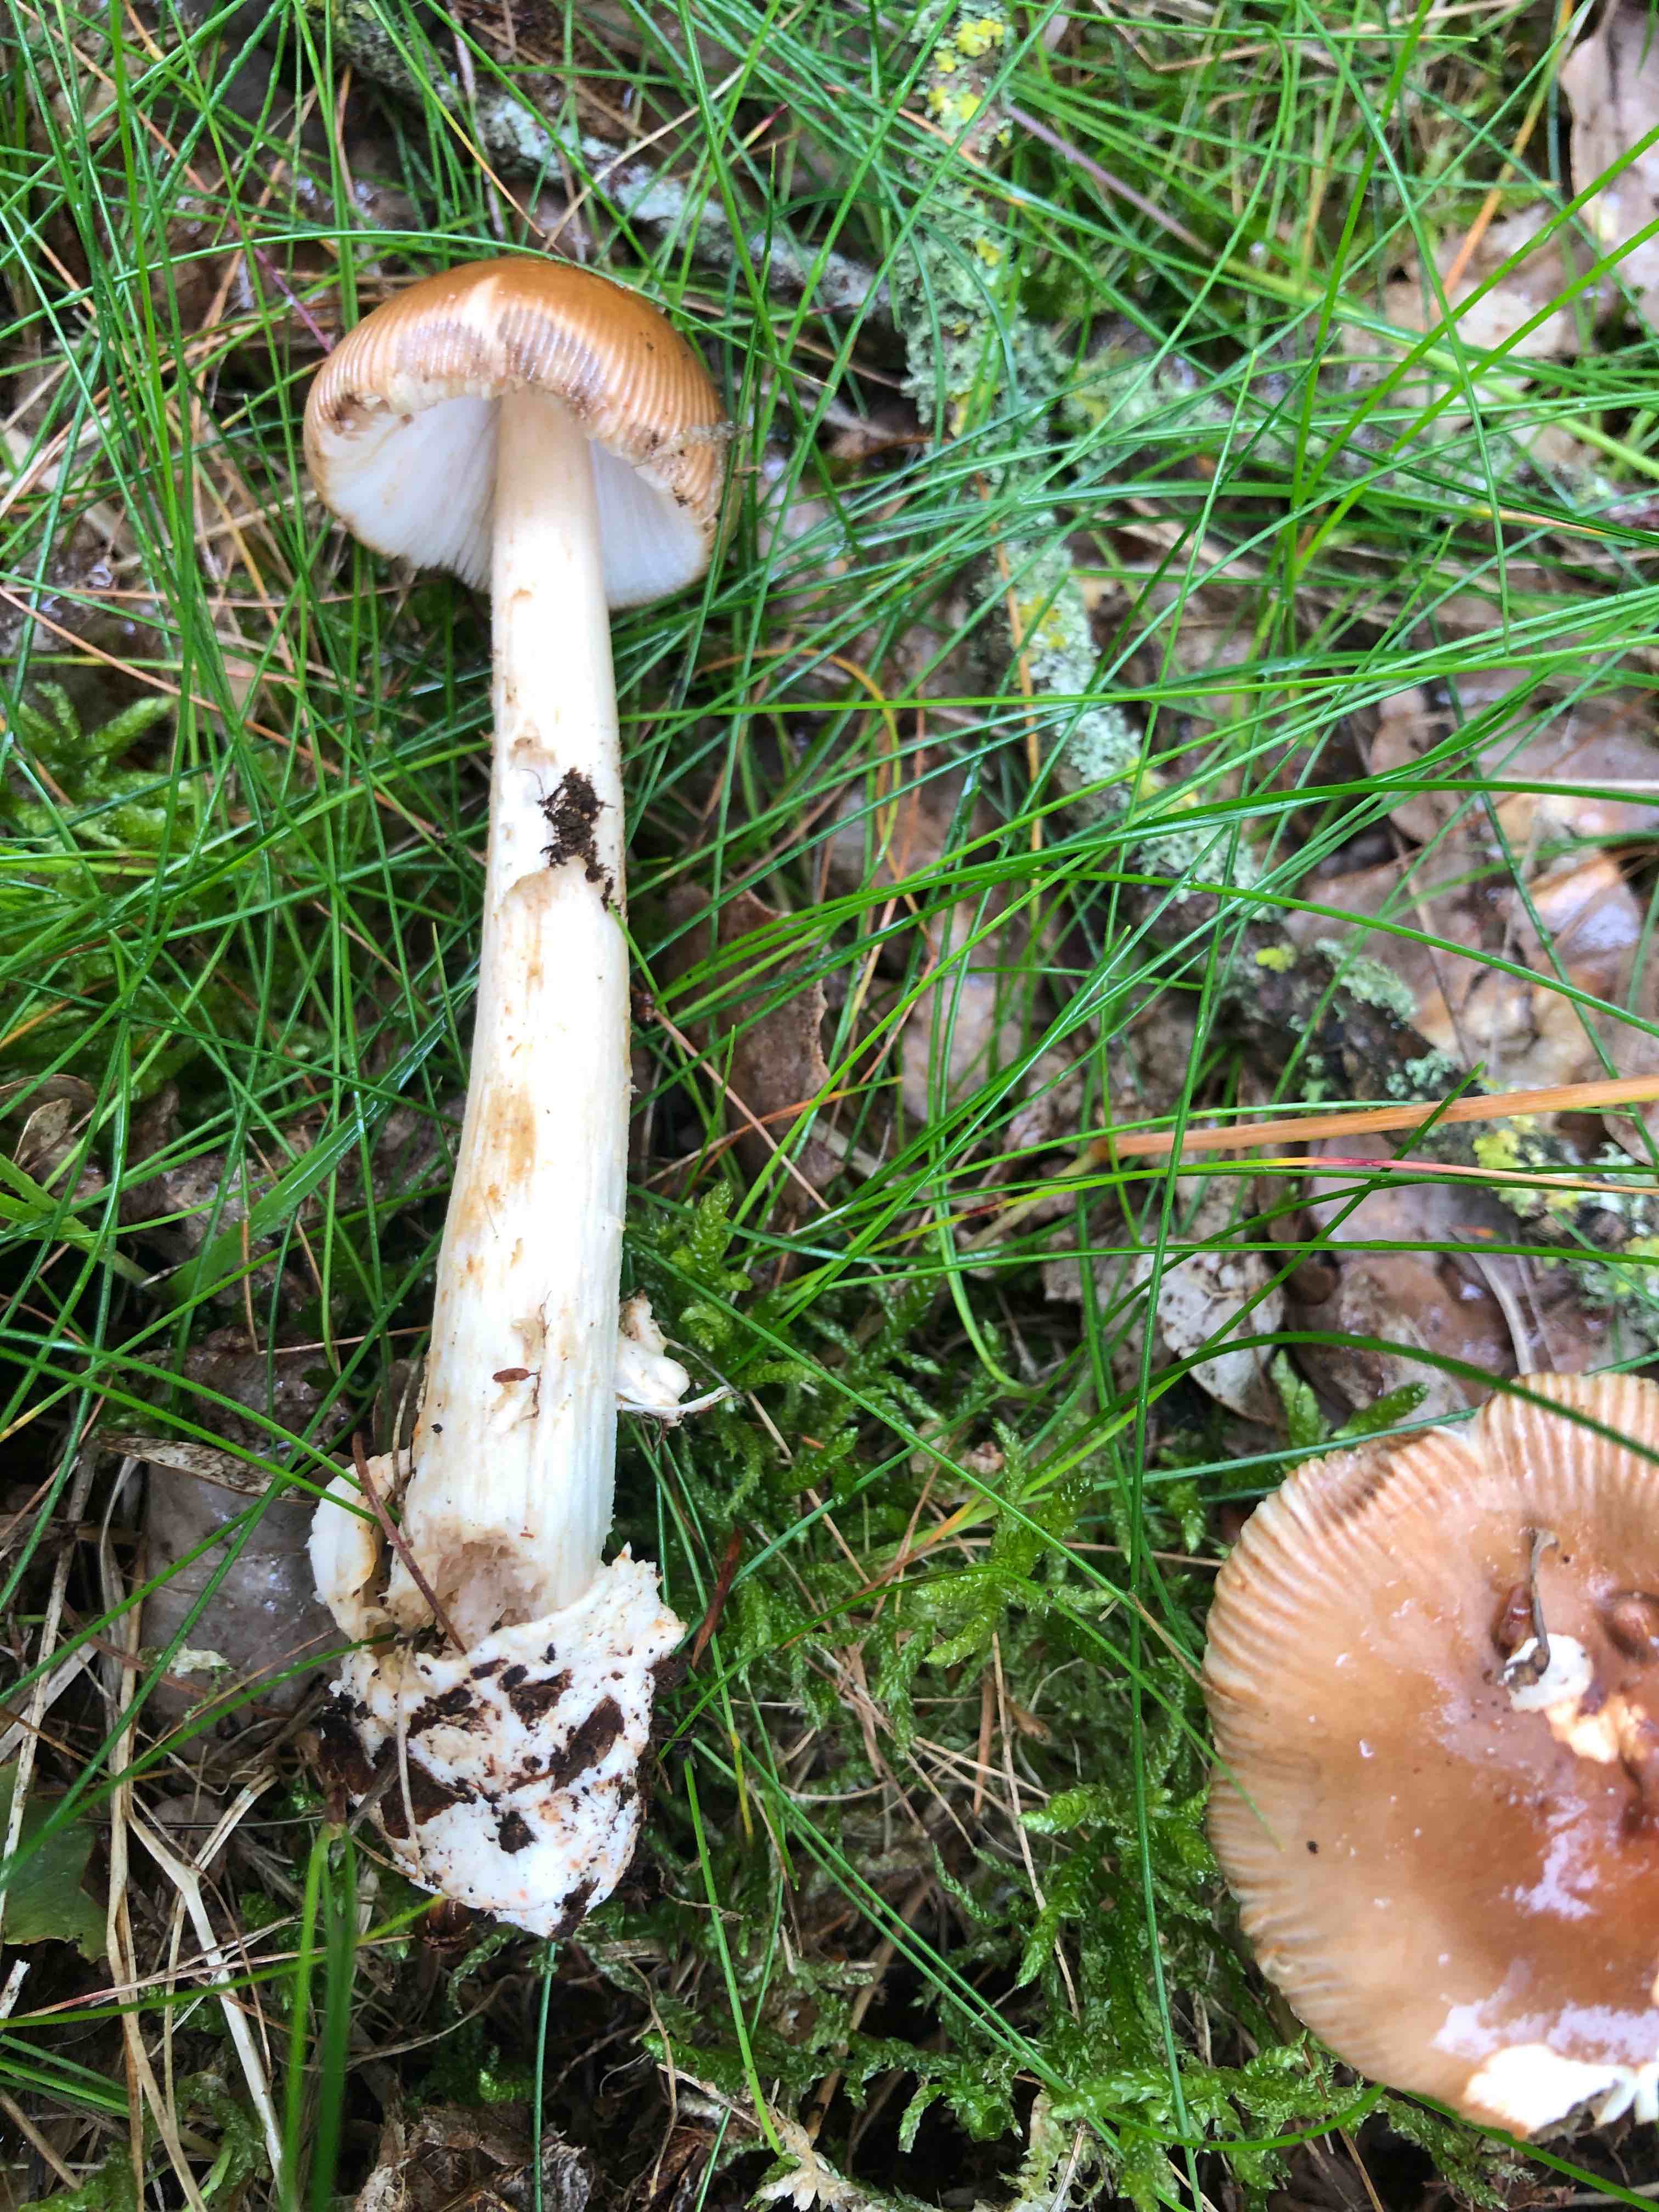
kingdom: Fungi
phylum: Basidiomycota
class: Agaricomycetes
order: Agaricales
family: Amanitaceae
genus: Amanita
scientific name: Amanita fulva
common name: brun kam-fluesvamp
